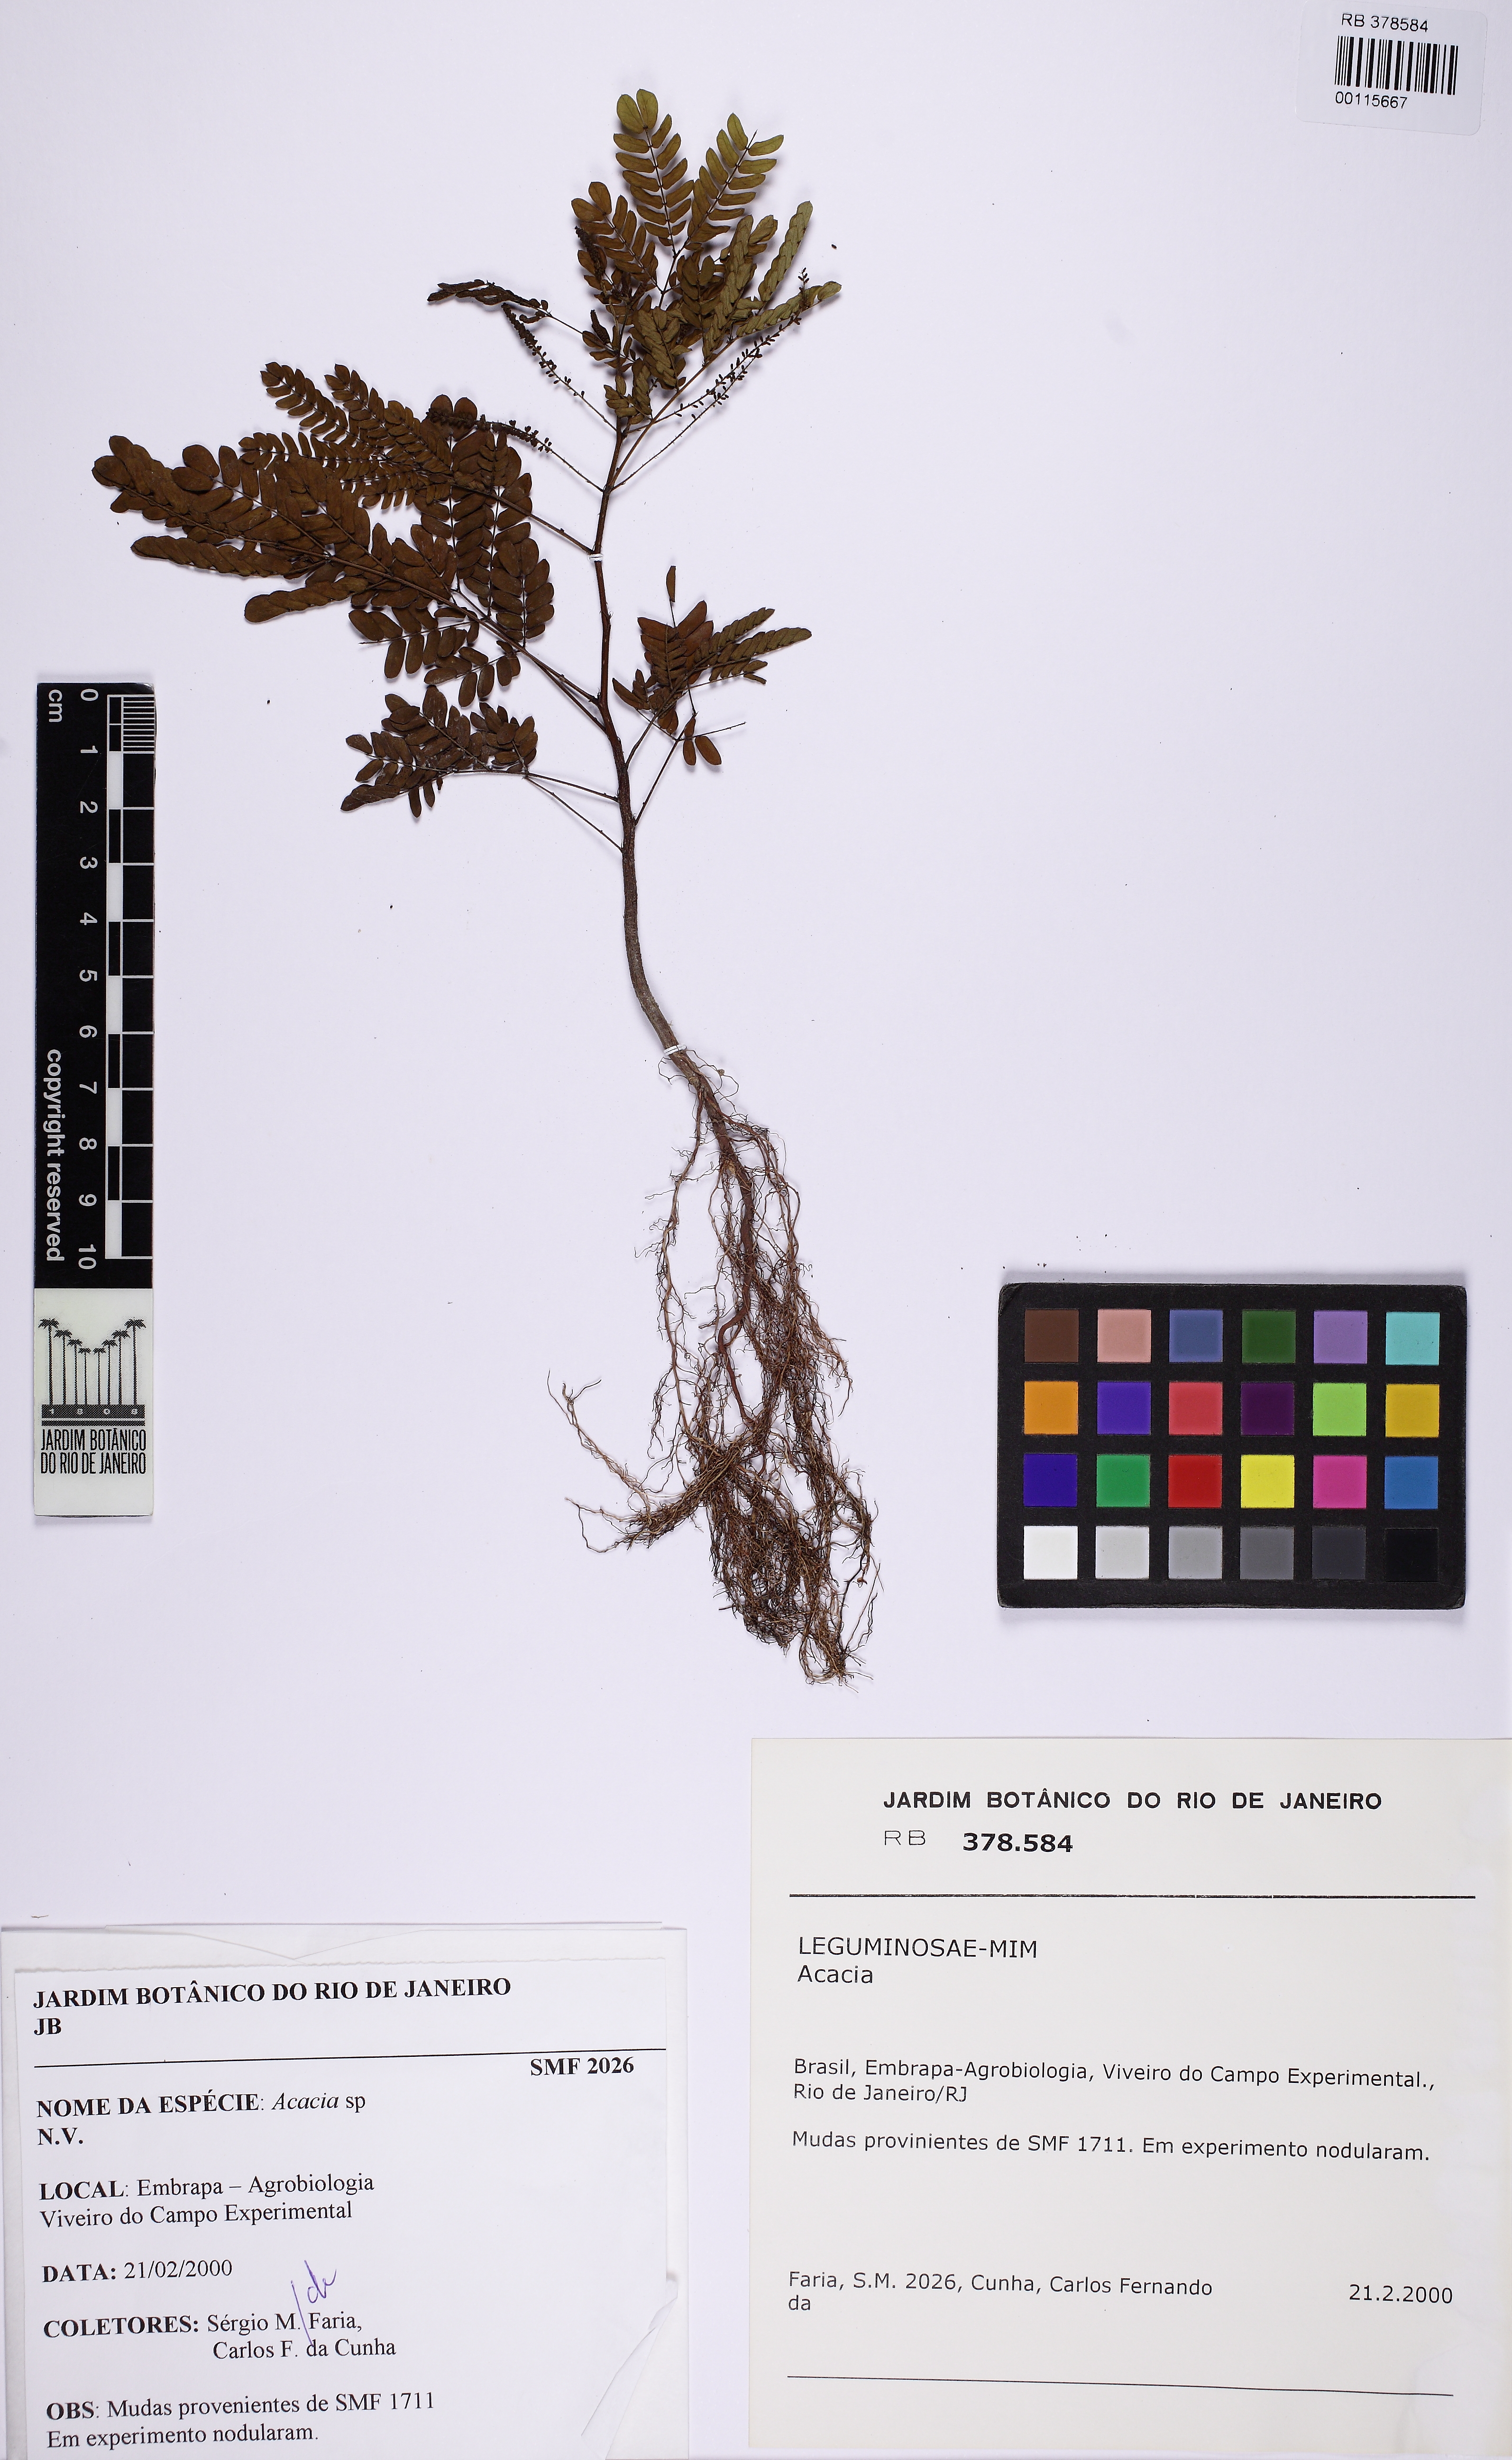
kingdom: Plantae
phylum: Tracheophyta
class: Magnoliopsida
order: Fabales
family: Fabaceae
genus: Acacia
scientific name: Acacia
